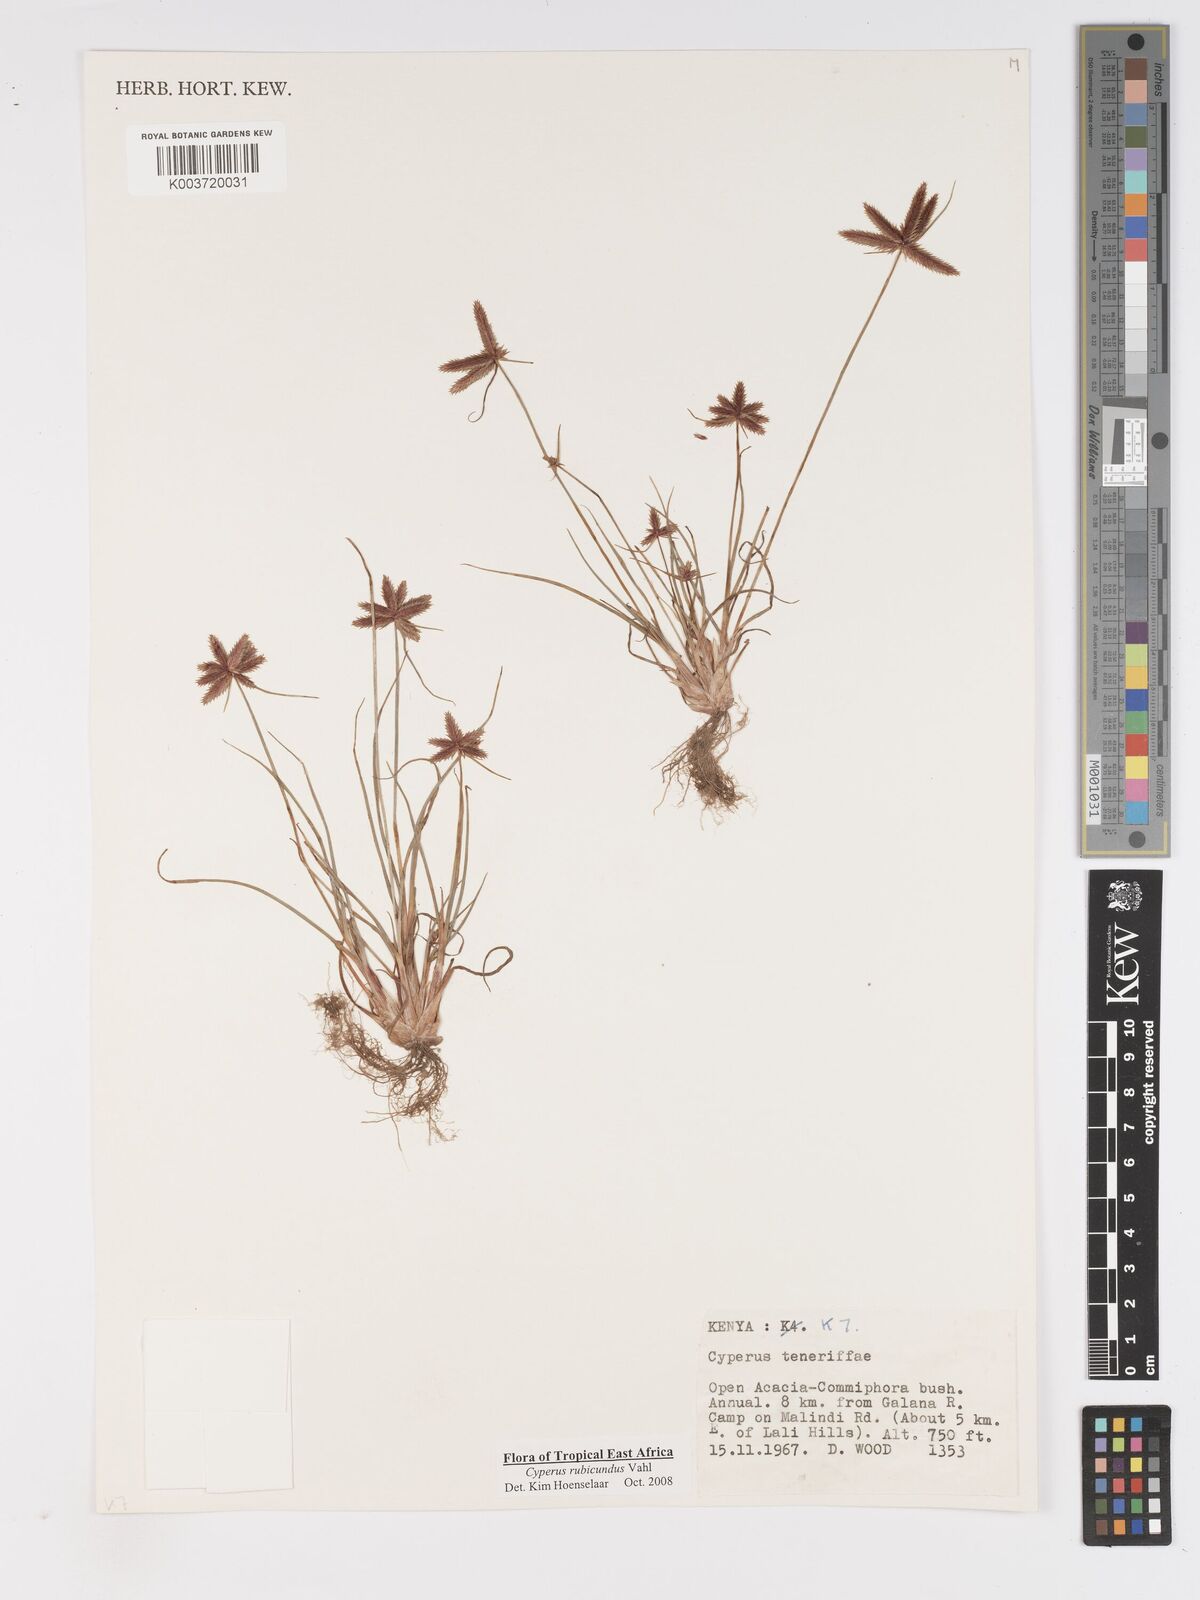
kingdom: Plantae
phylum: Tracheophyta
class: Liliopsida
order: Poales
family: Cyperaceae
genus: Cyperus
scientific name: Cyperus rubicundus
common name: Coco-grass
